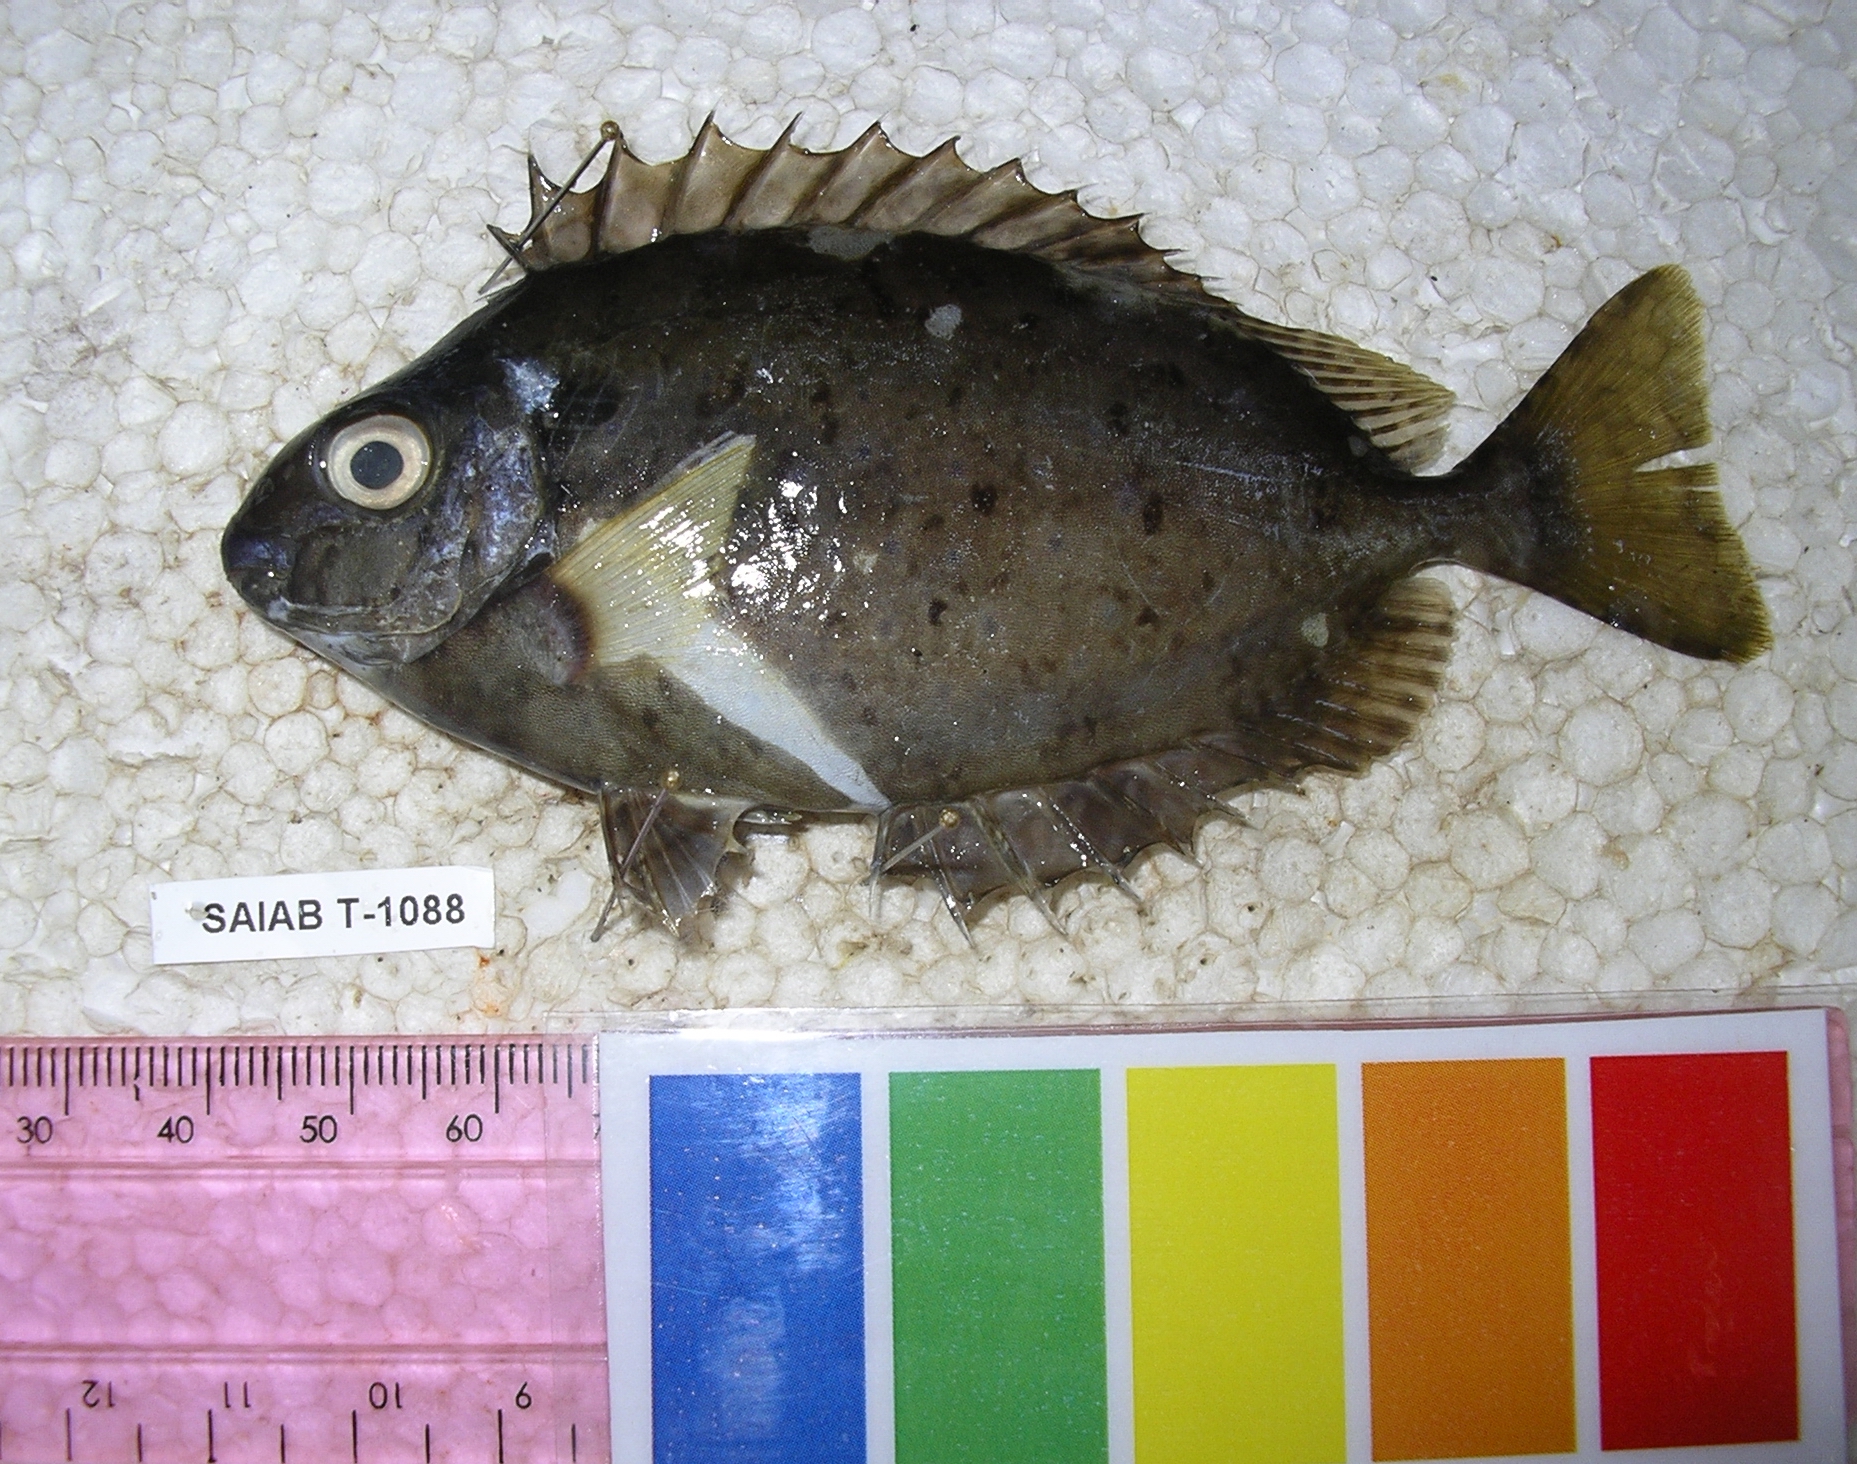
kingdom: Animalia
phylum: Chordata
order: Perciformes
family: Siganidae
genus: Siganus
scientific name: Siganus sutor
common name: Shoemaker spinefoot
